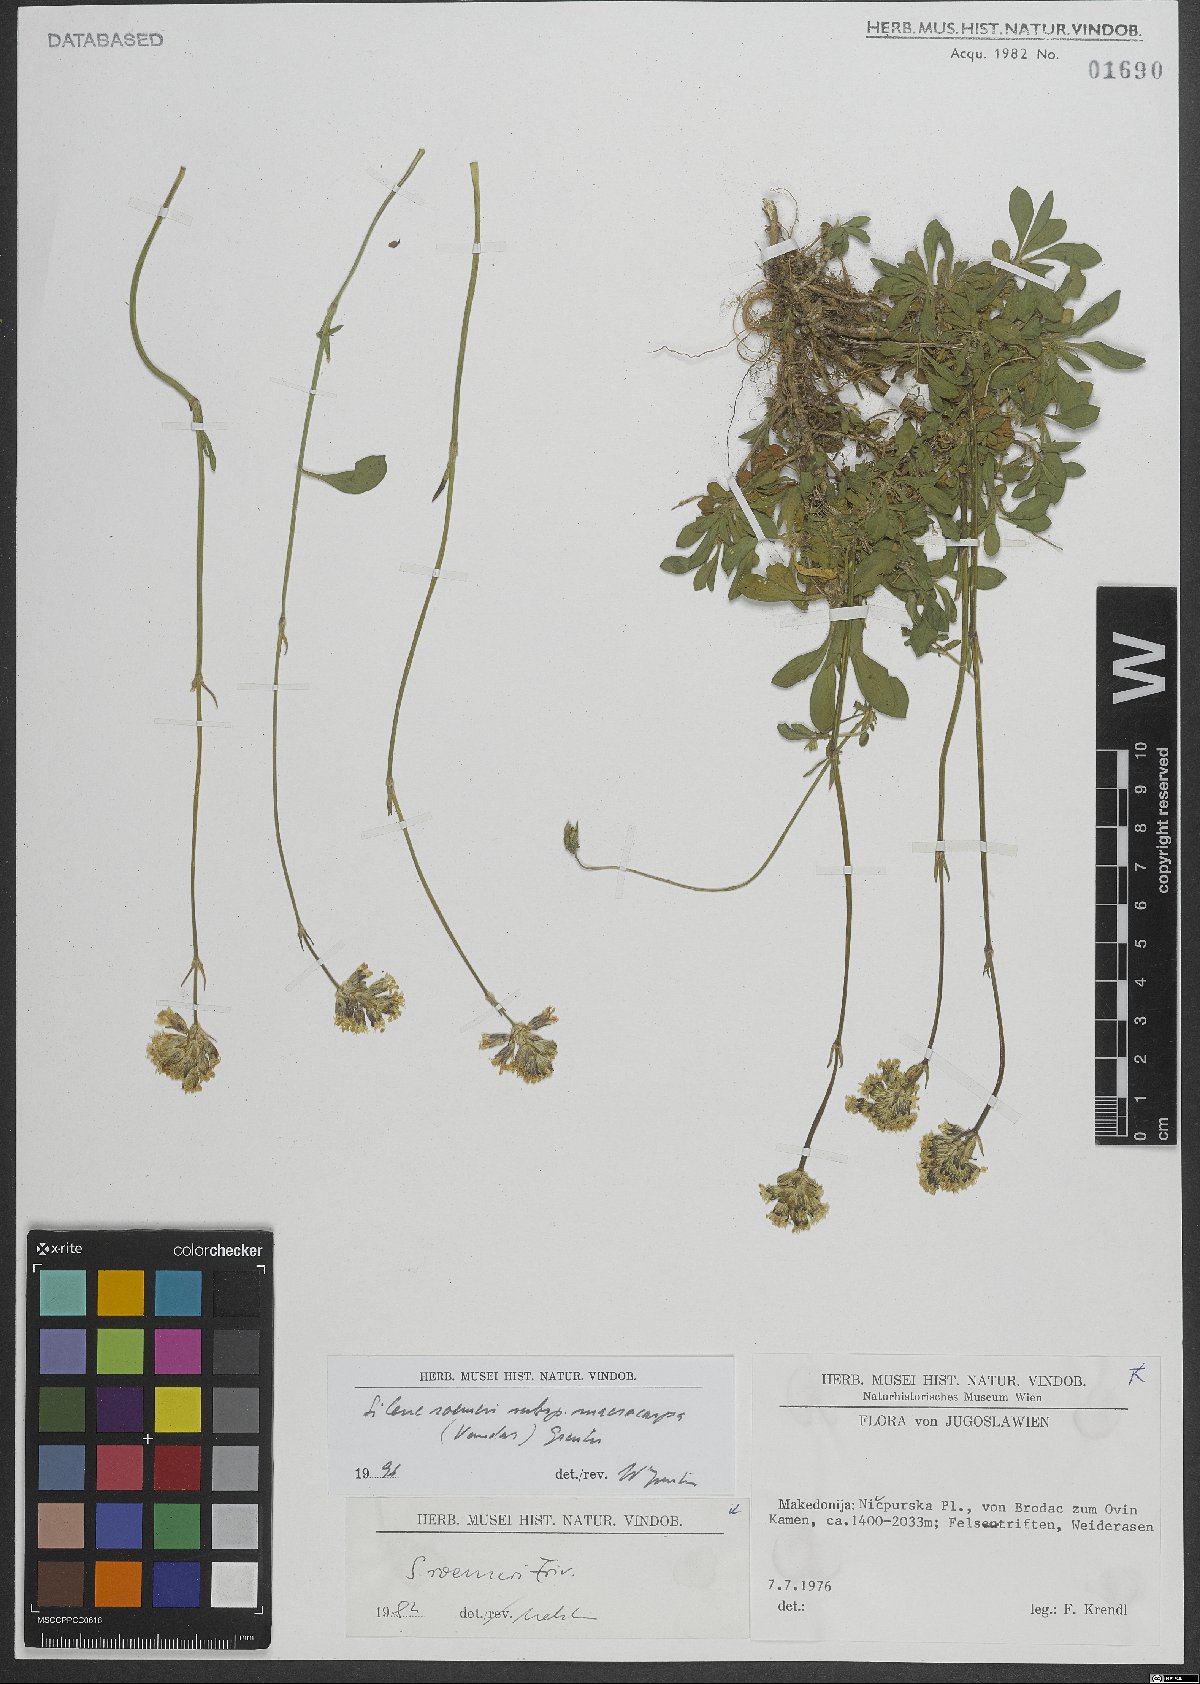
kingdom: Plantae
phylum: Tracheophyta
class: Magnoliopsida
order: Caryophyllales
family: Caryophyllaceae
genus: Silene
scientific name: Silene roemeri
